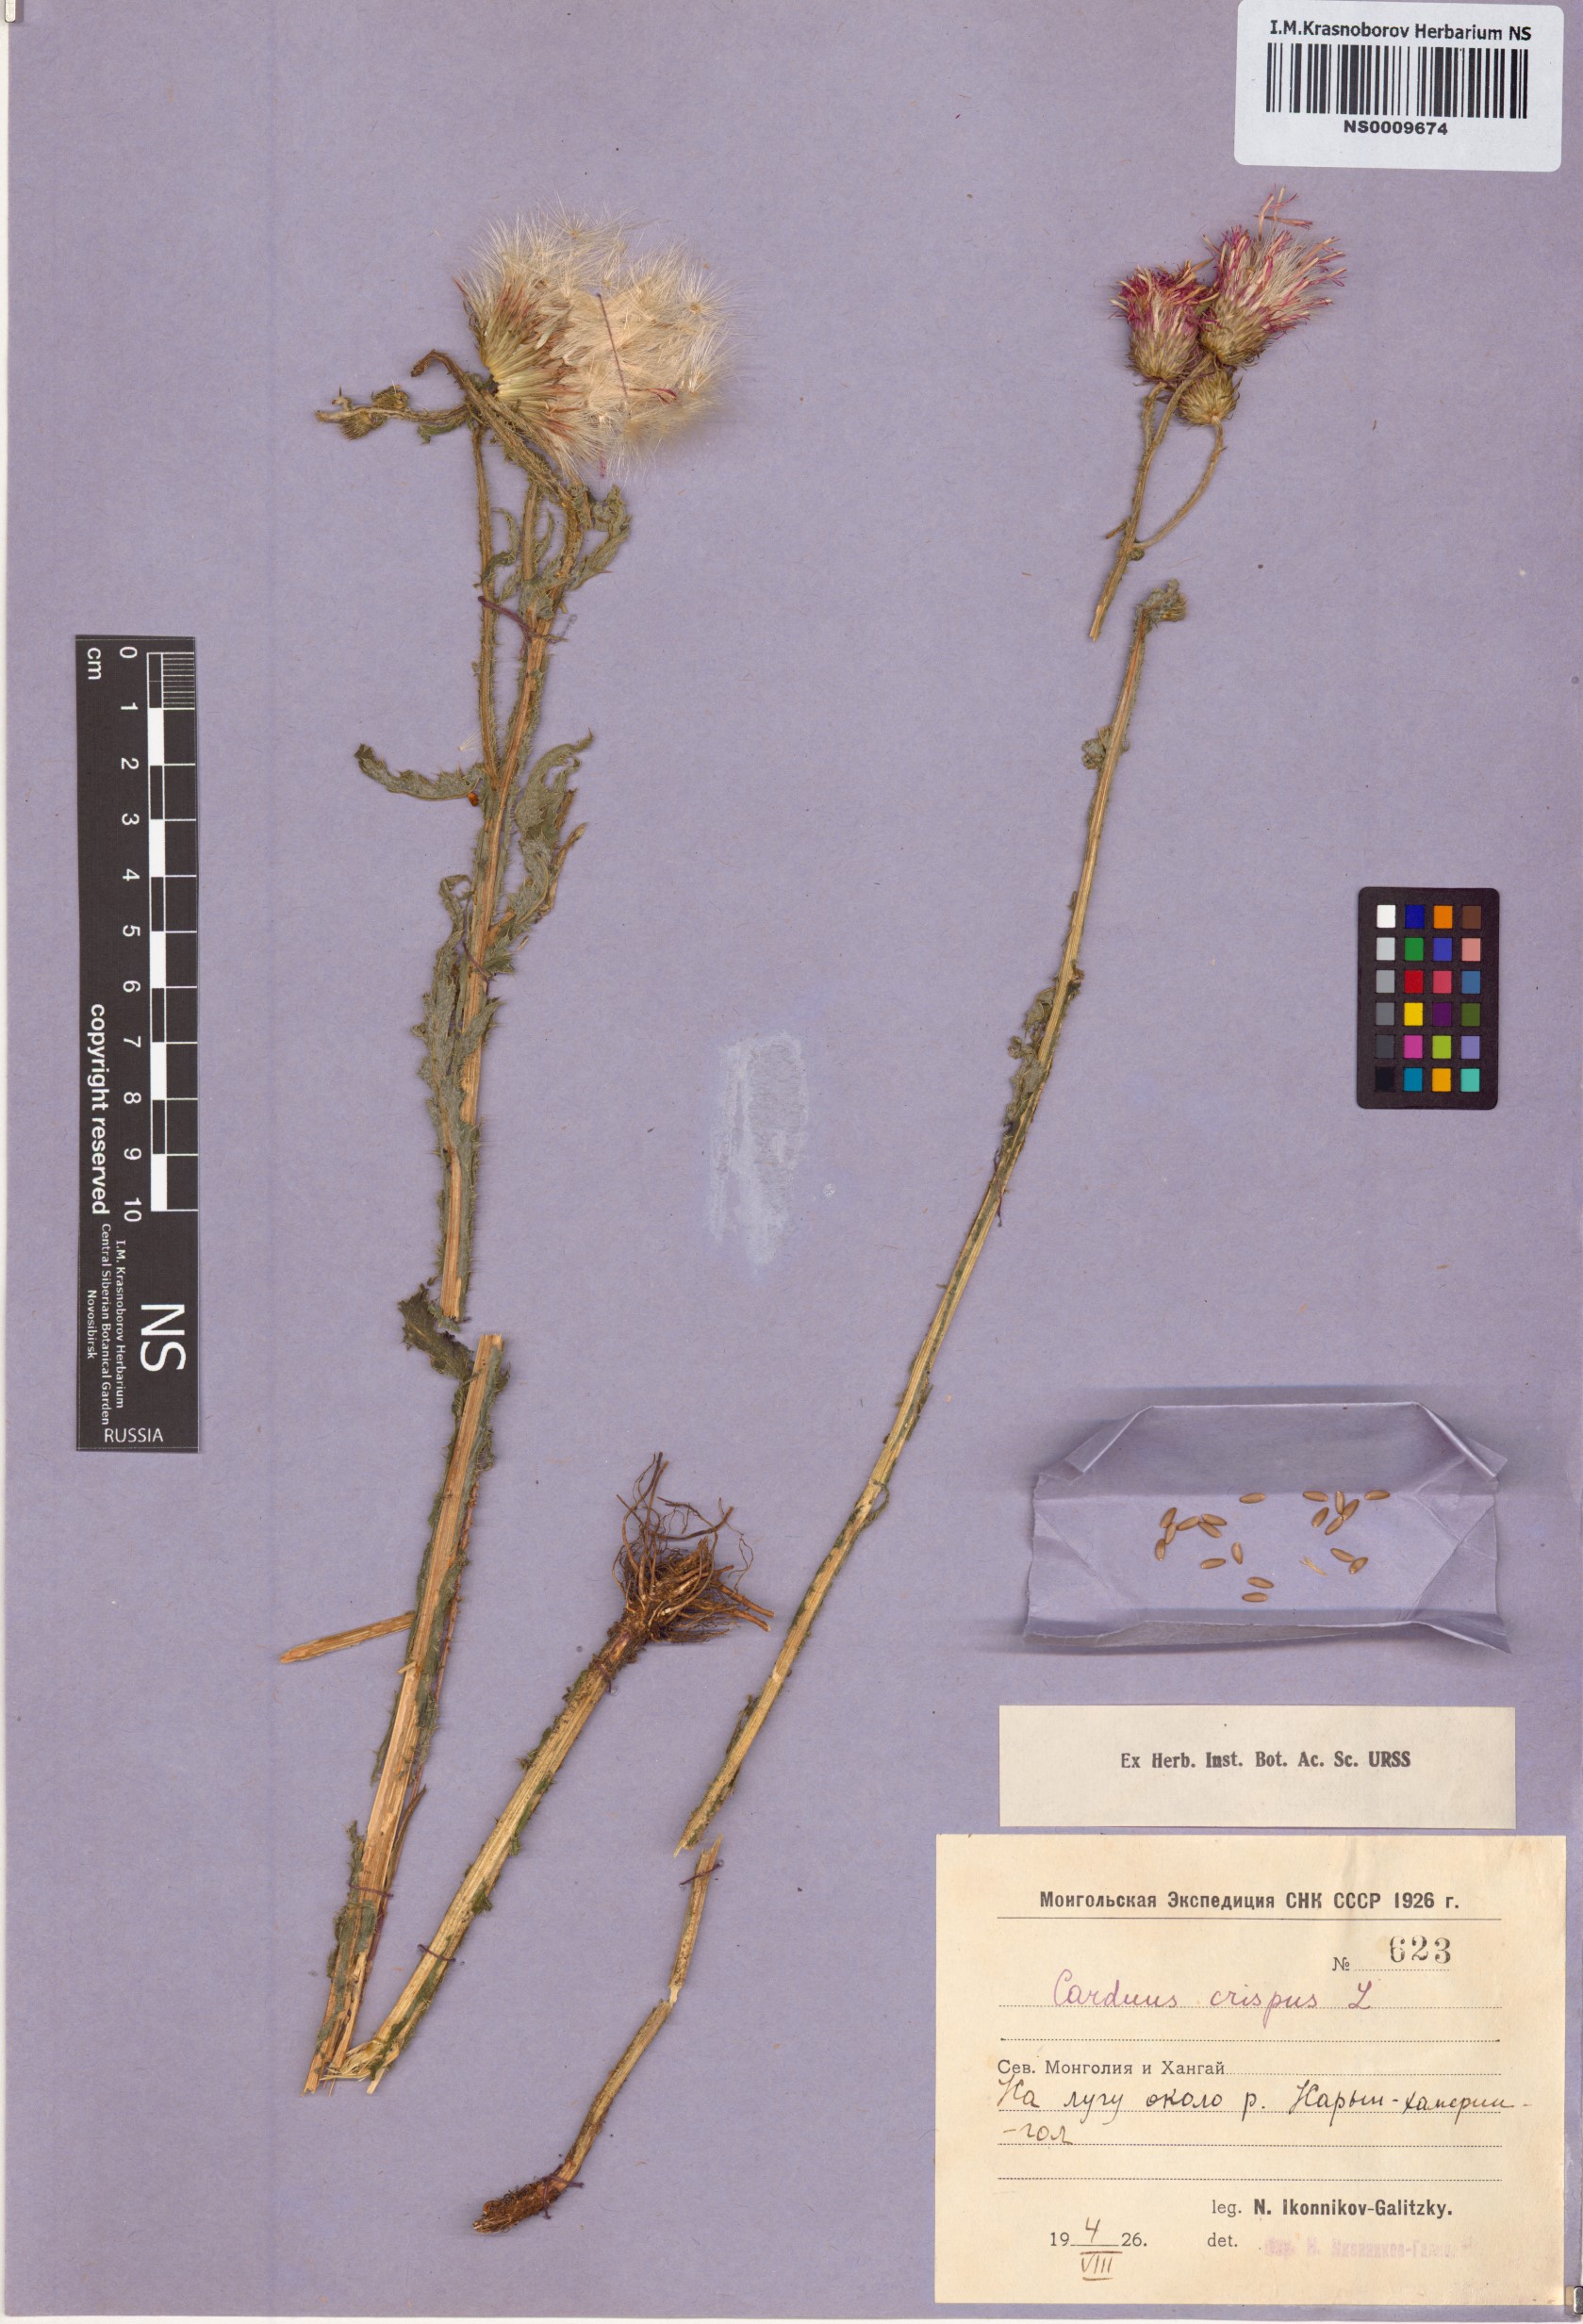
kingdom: Plantae
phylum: Tracheophyta
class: Magnoliopsida
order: Asterales
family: Asteraceae
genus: Carduus
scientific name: Carduus crispus
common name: Welted thistle
